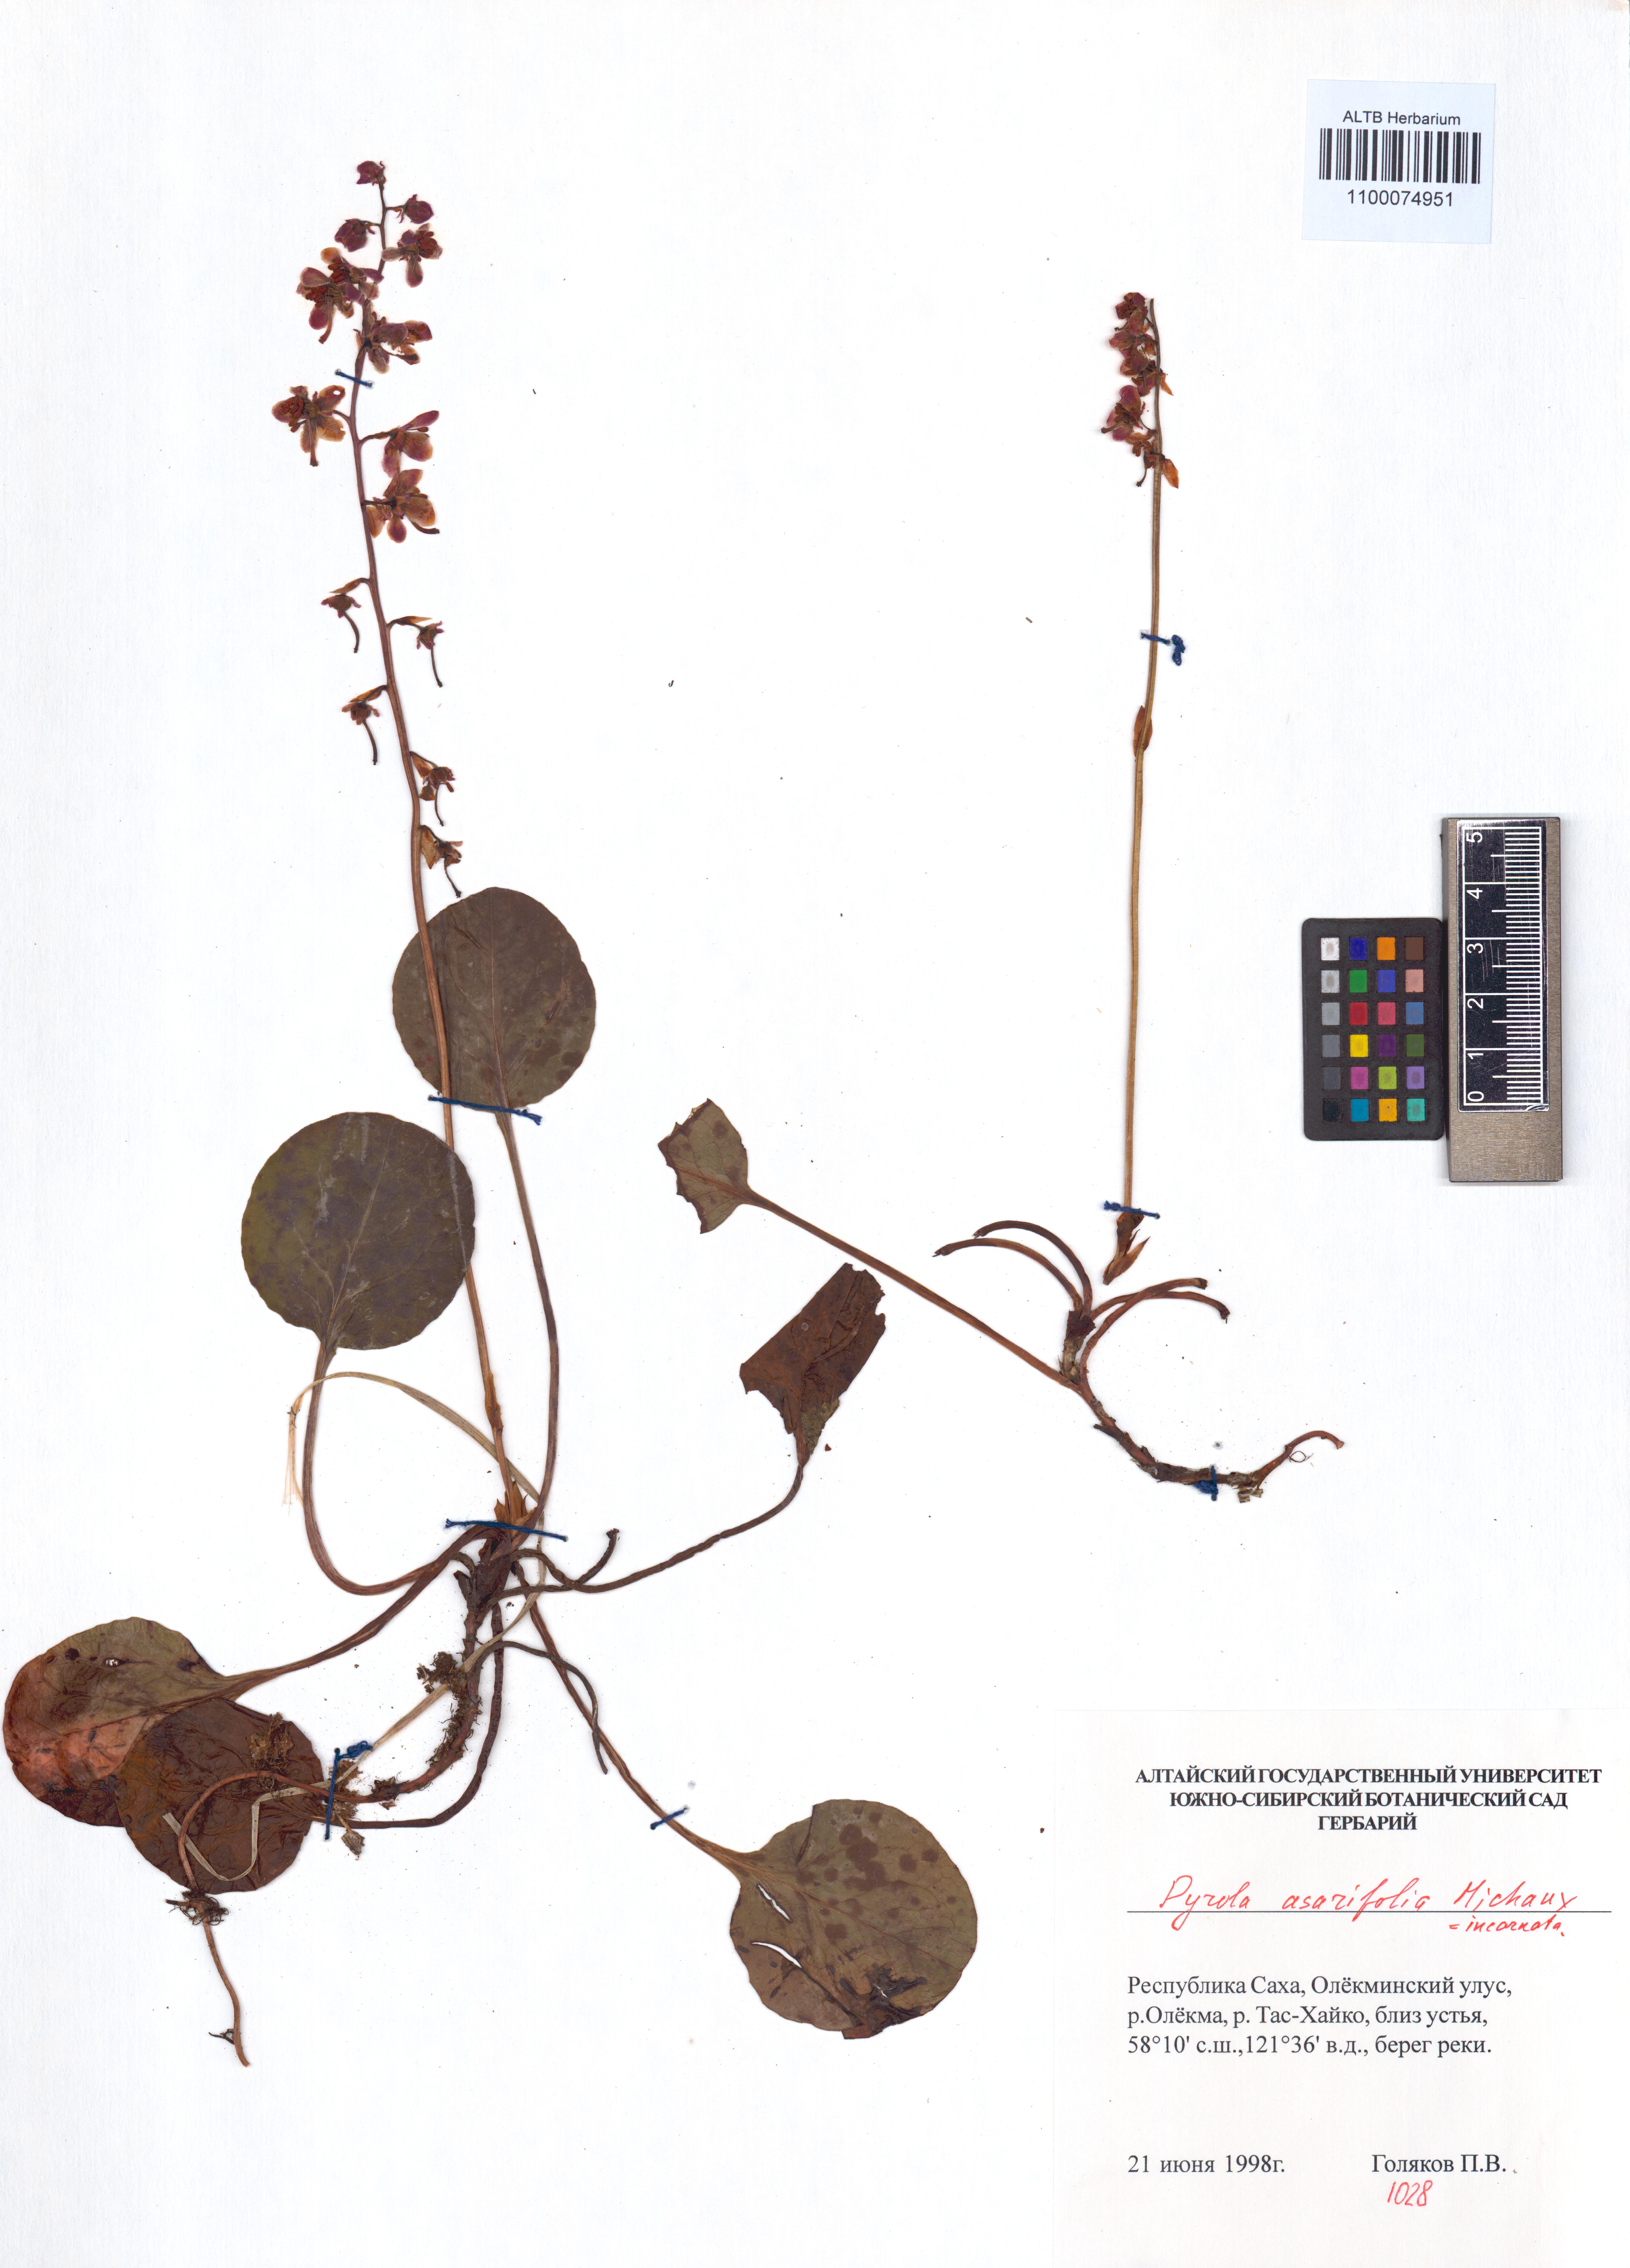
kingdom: Plantae
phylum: Tracheophyta
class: Magnoliopsida
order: Ericales
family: Ericaceae
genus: Pyrola
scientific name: Pyrola asarifolia
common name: Bog wintergreen
